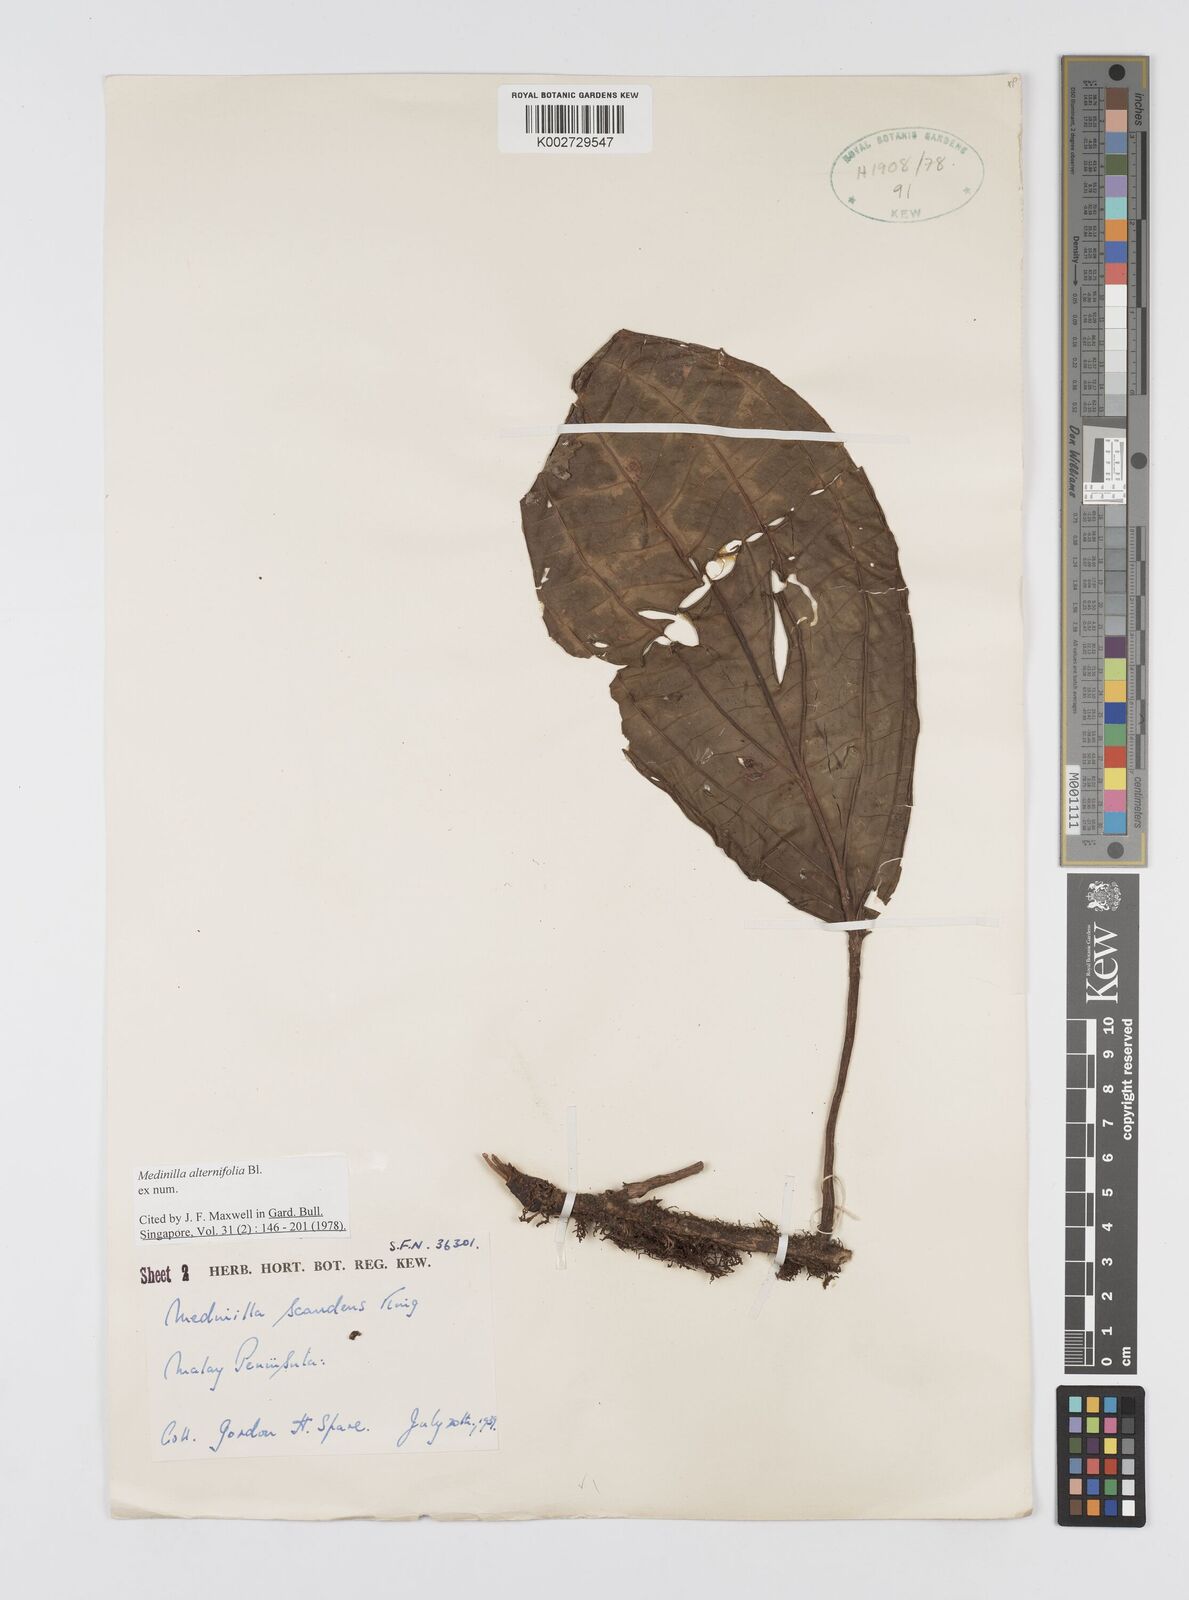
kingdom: Plantae
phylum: Tracheophyta
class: Magnoliopsida
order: Myrtales
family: Melastomataceae
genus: Heteroblemma
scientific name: Heteroblemma alternifolium
